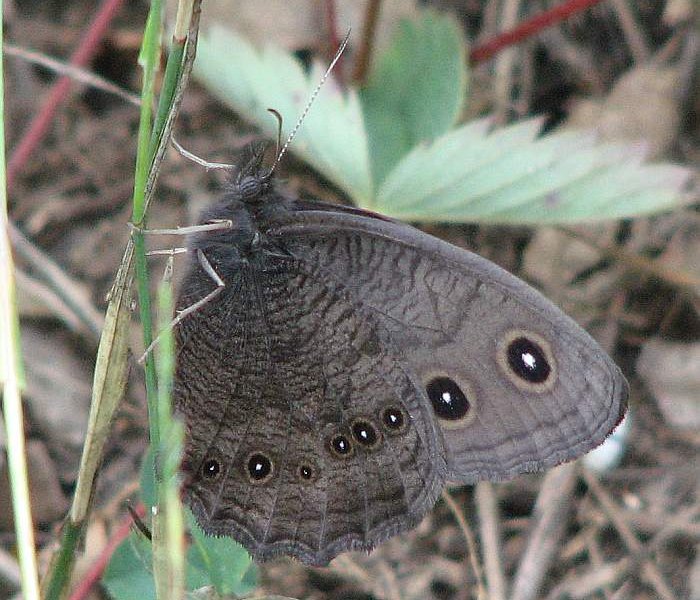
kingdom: Animalia
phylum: Arthropoda
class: Insecta
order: Lepidoptera
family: Nymphalidae
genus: Cercyonis
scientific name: Cercyonis pegala
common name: Common Wood-Nymph
